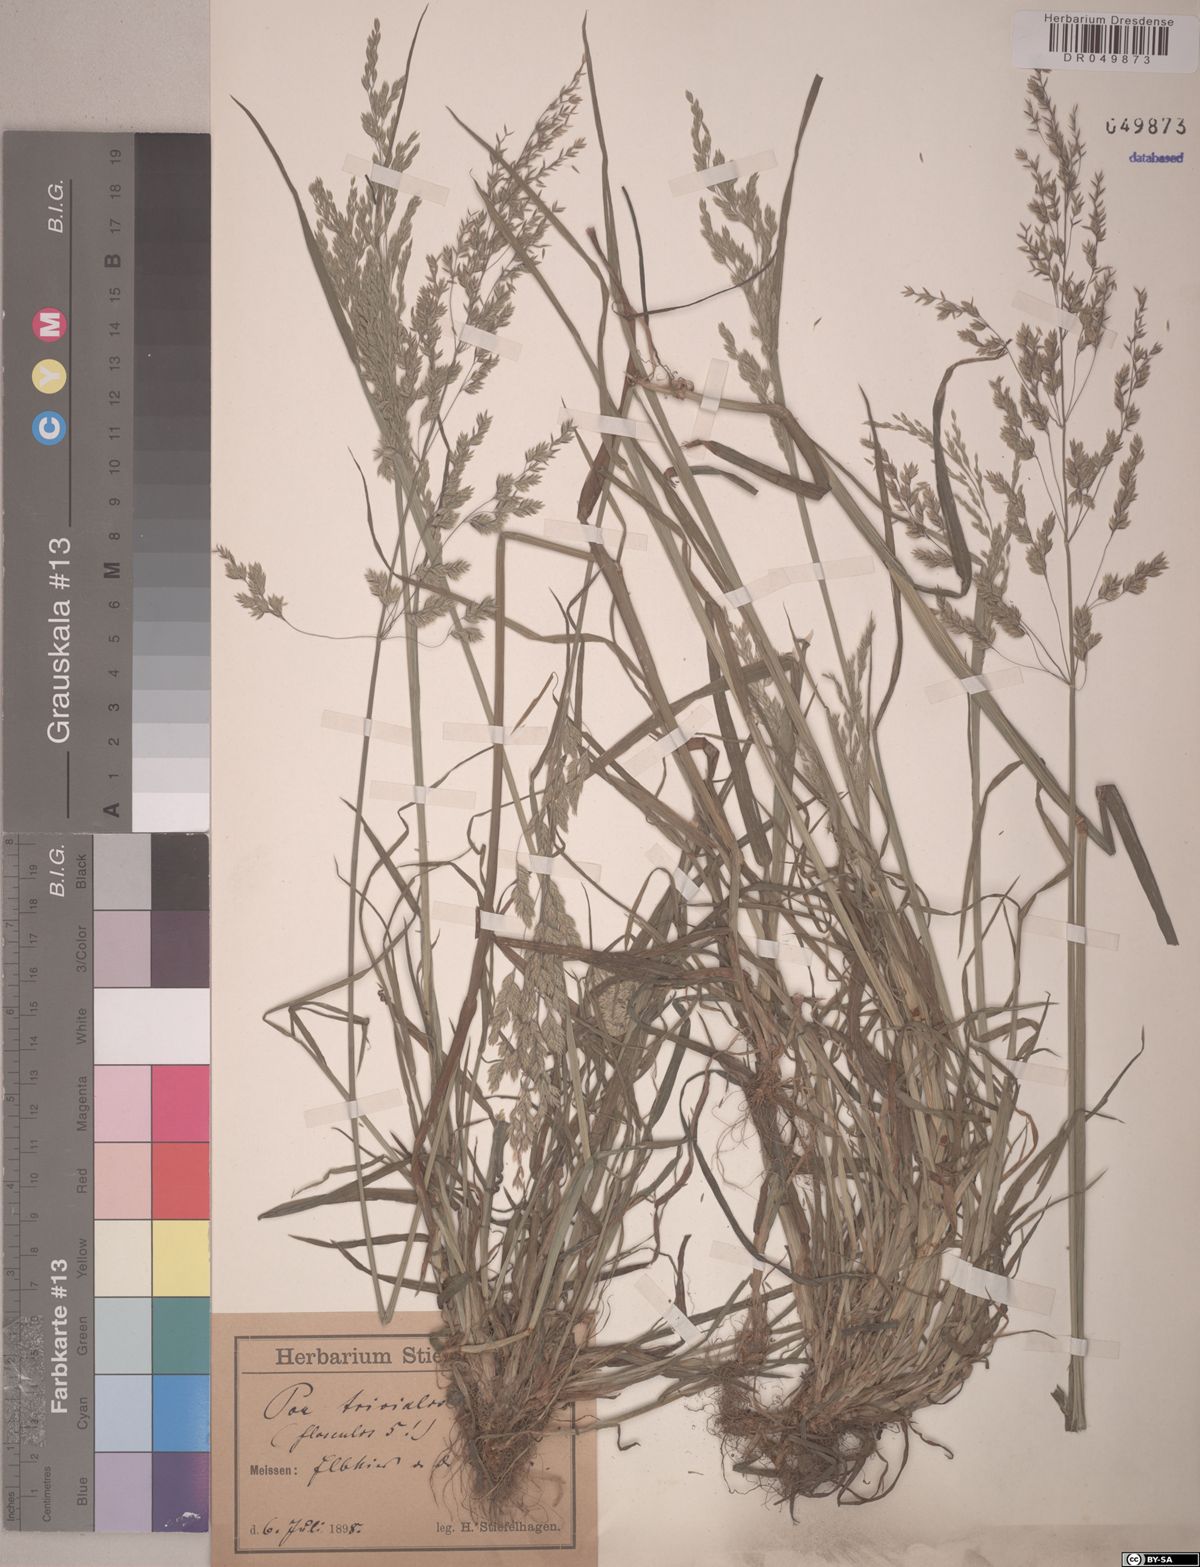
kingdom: Plantae
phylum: Tracheophyta
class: Liliopsida
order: Poales
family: Poaceae
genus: Poa
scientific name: Poa trivialis
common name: Rough bluegrass
